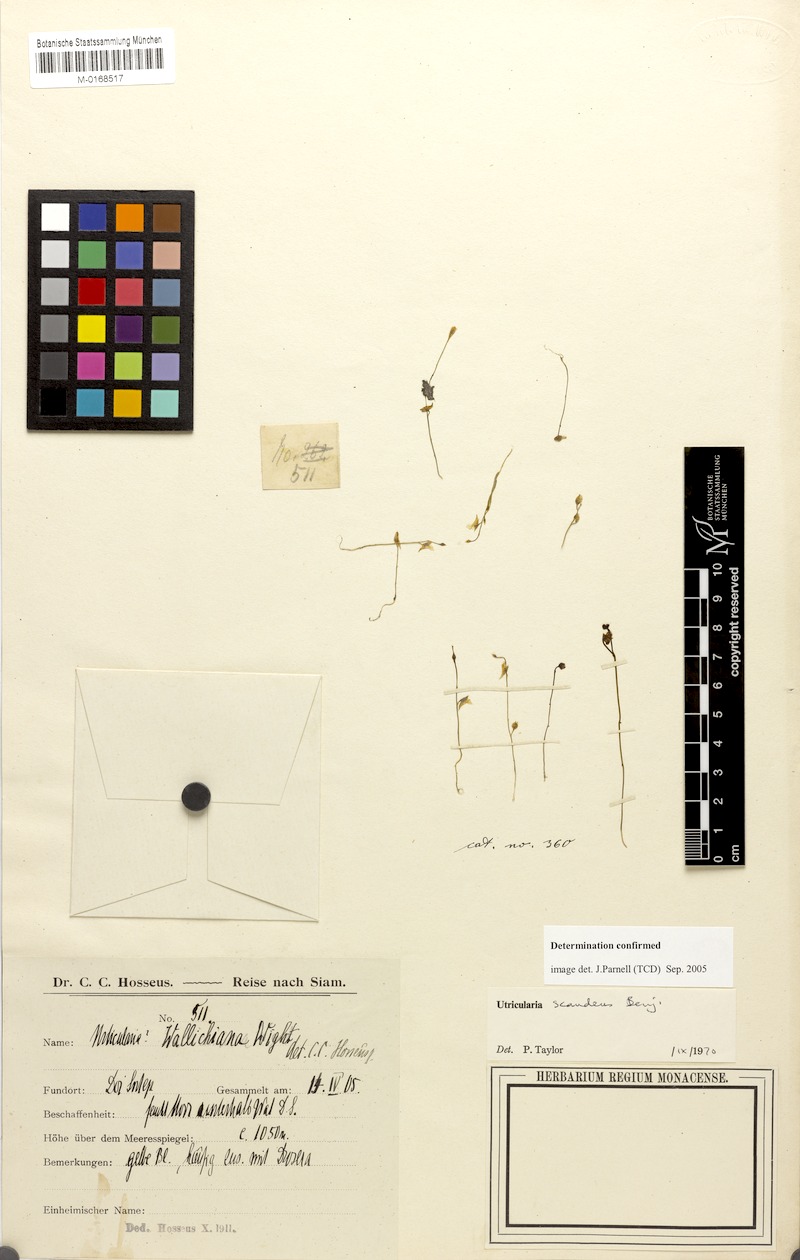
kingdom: Plantae
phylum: Tracheophyta
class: Magnoliopsida
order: Lamiales
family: Lentibulariaceae
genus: Utricularia
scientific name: Utricularia scandens
